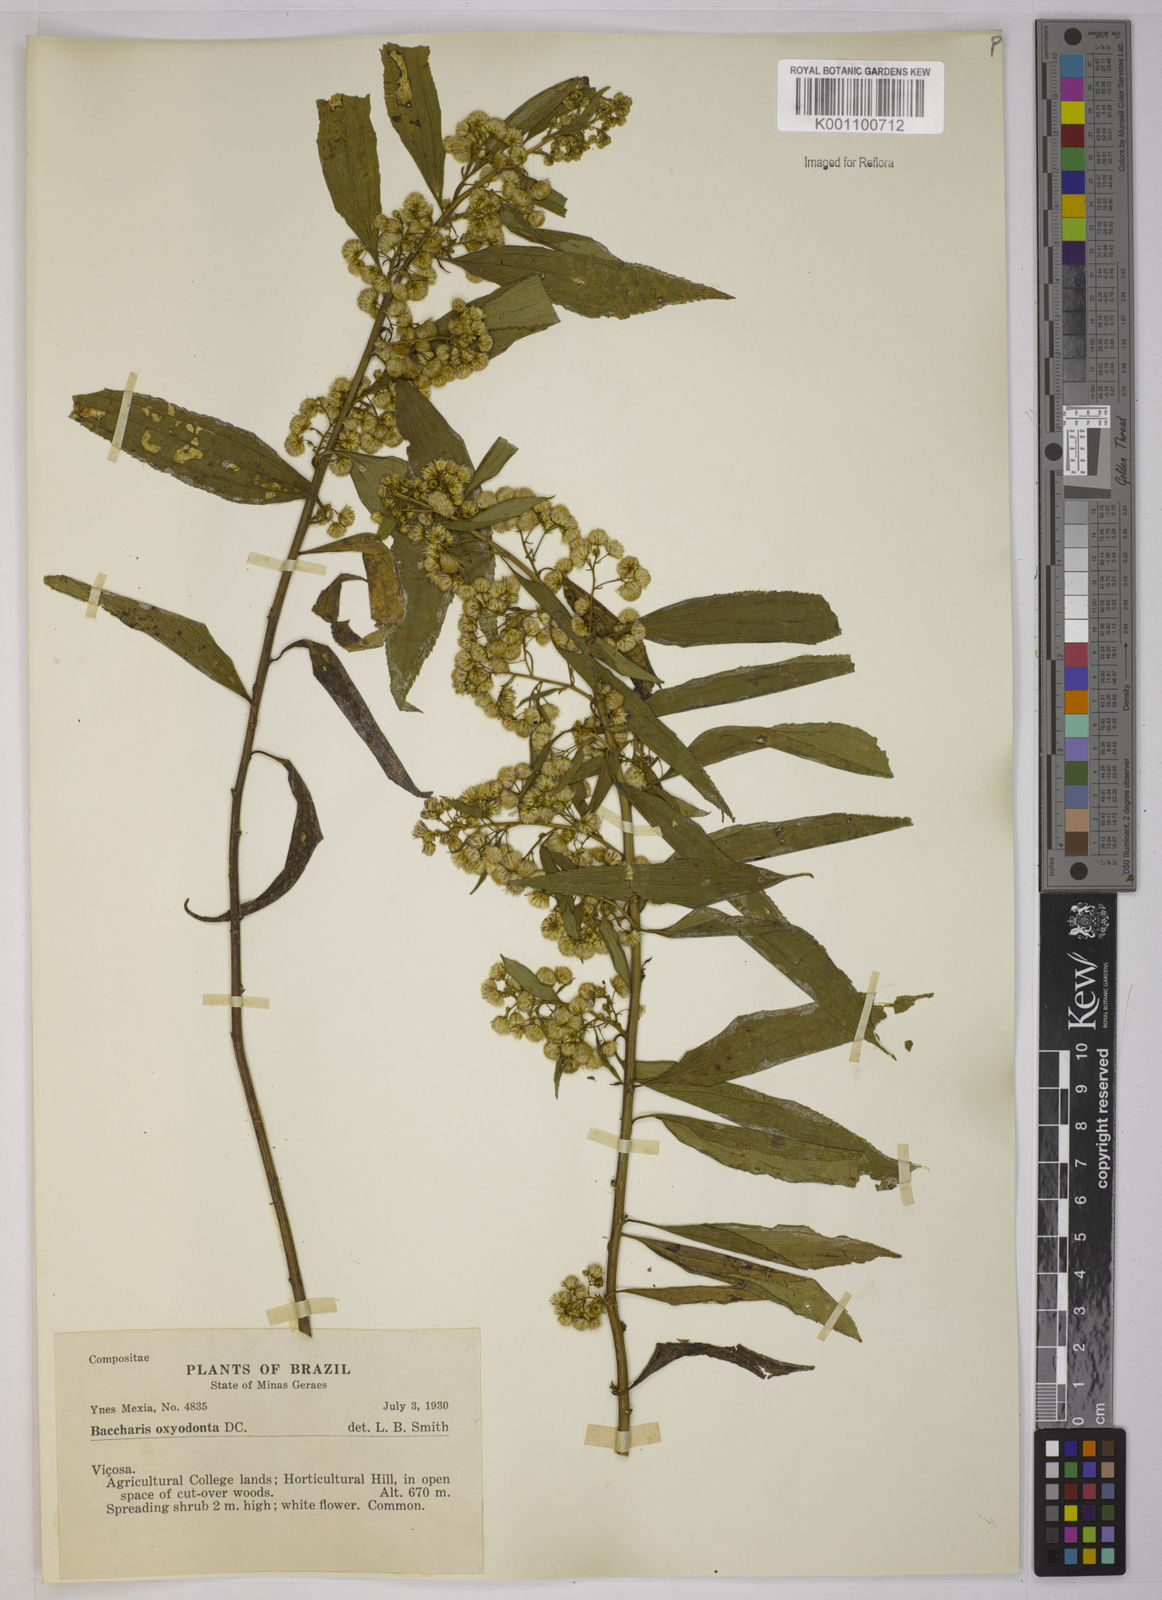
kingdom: Plantae
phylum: Tracheophyta
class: Magnoliopsida
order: Asterales
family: Asteraceae
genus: Baccharis
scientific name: Baccharis oxyodonta
